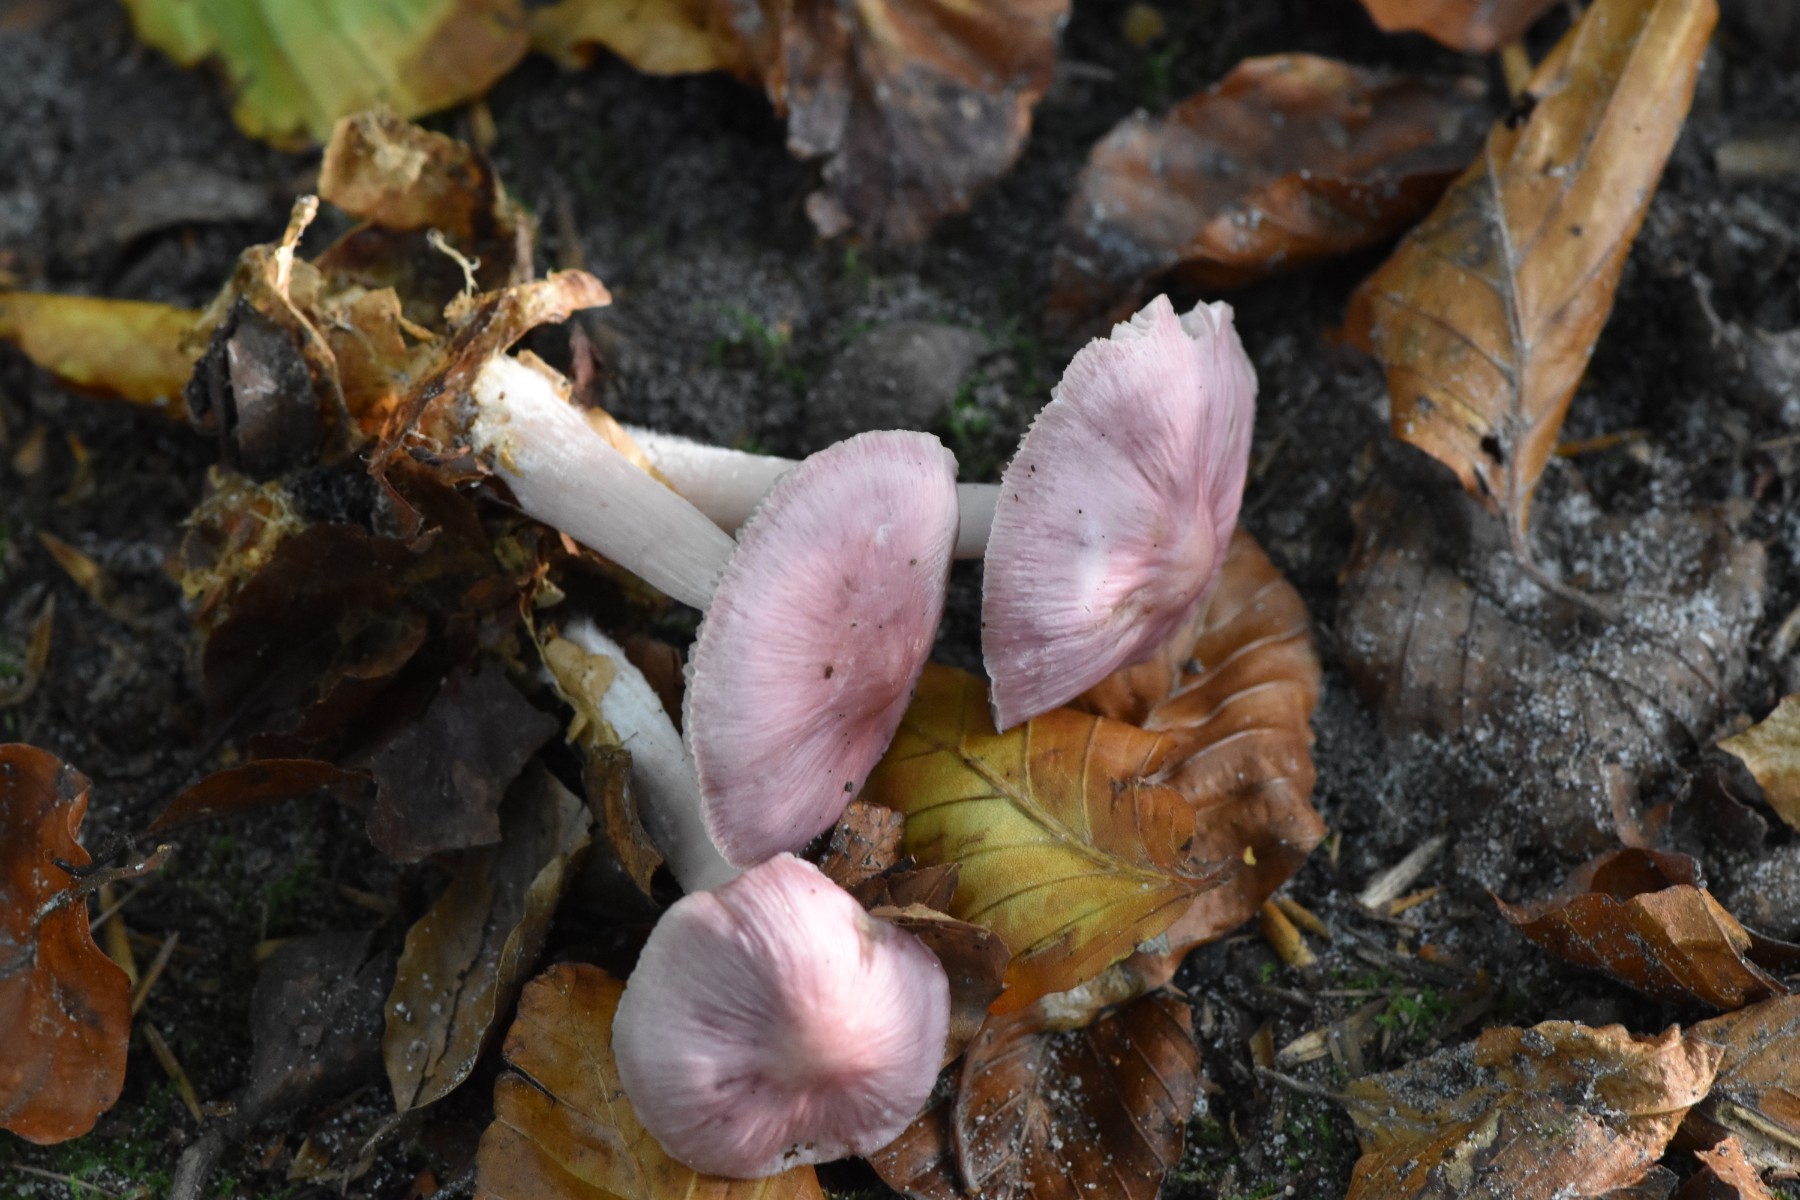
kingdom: Fungi
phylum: Basidiomycota
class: Agaricomycetes
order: Agaricales
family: Mycenaceae
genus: Mycena
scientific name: Mycena rosea
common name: rosa huesvamp
